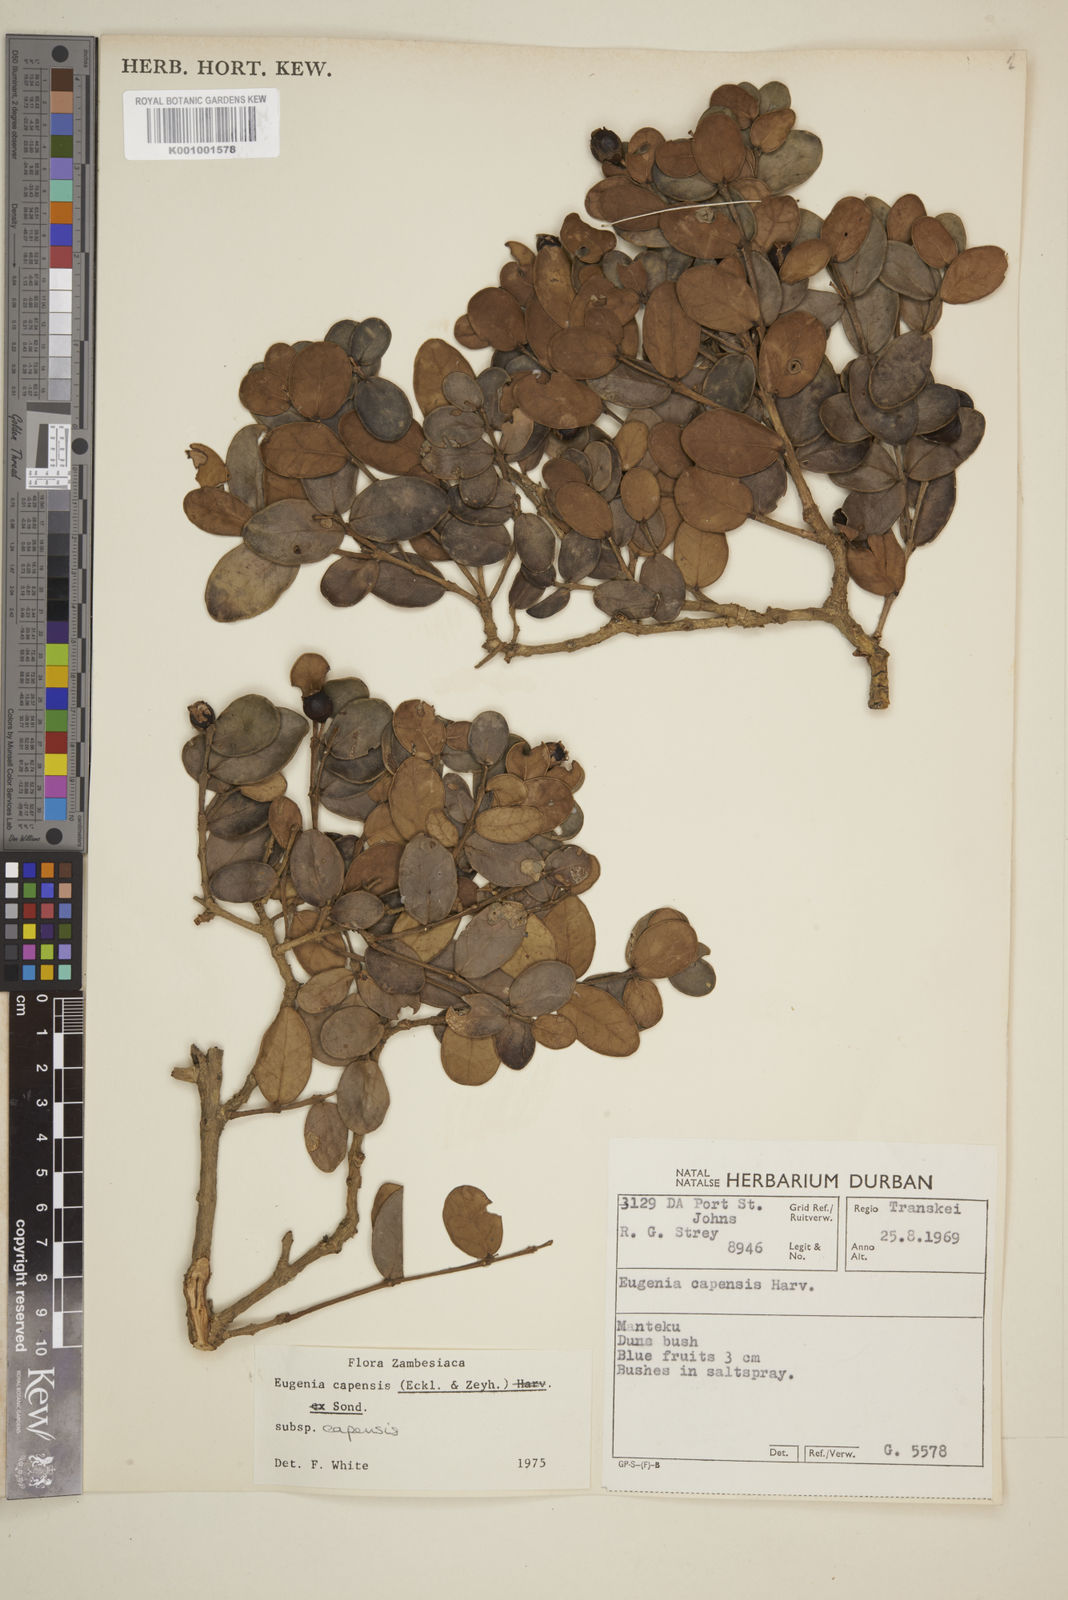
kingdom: Plantae
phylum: Tracheophyta
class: Magnoliopsida
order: Myrtales
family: Myrtaceae
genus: Eugenia
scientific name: Eugenia capensis
